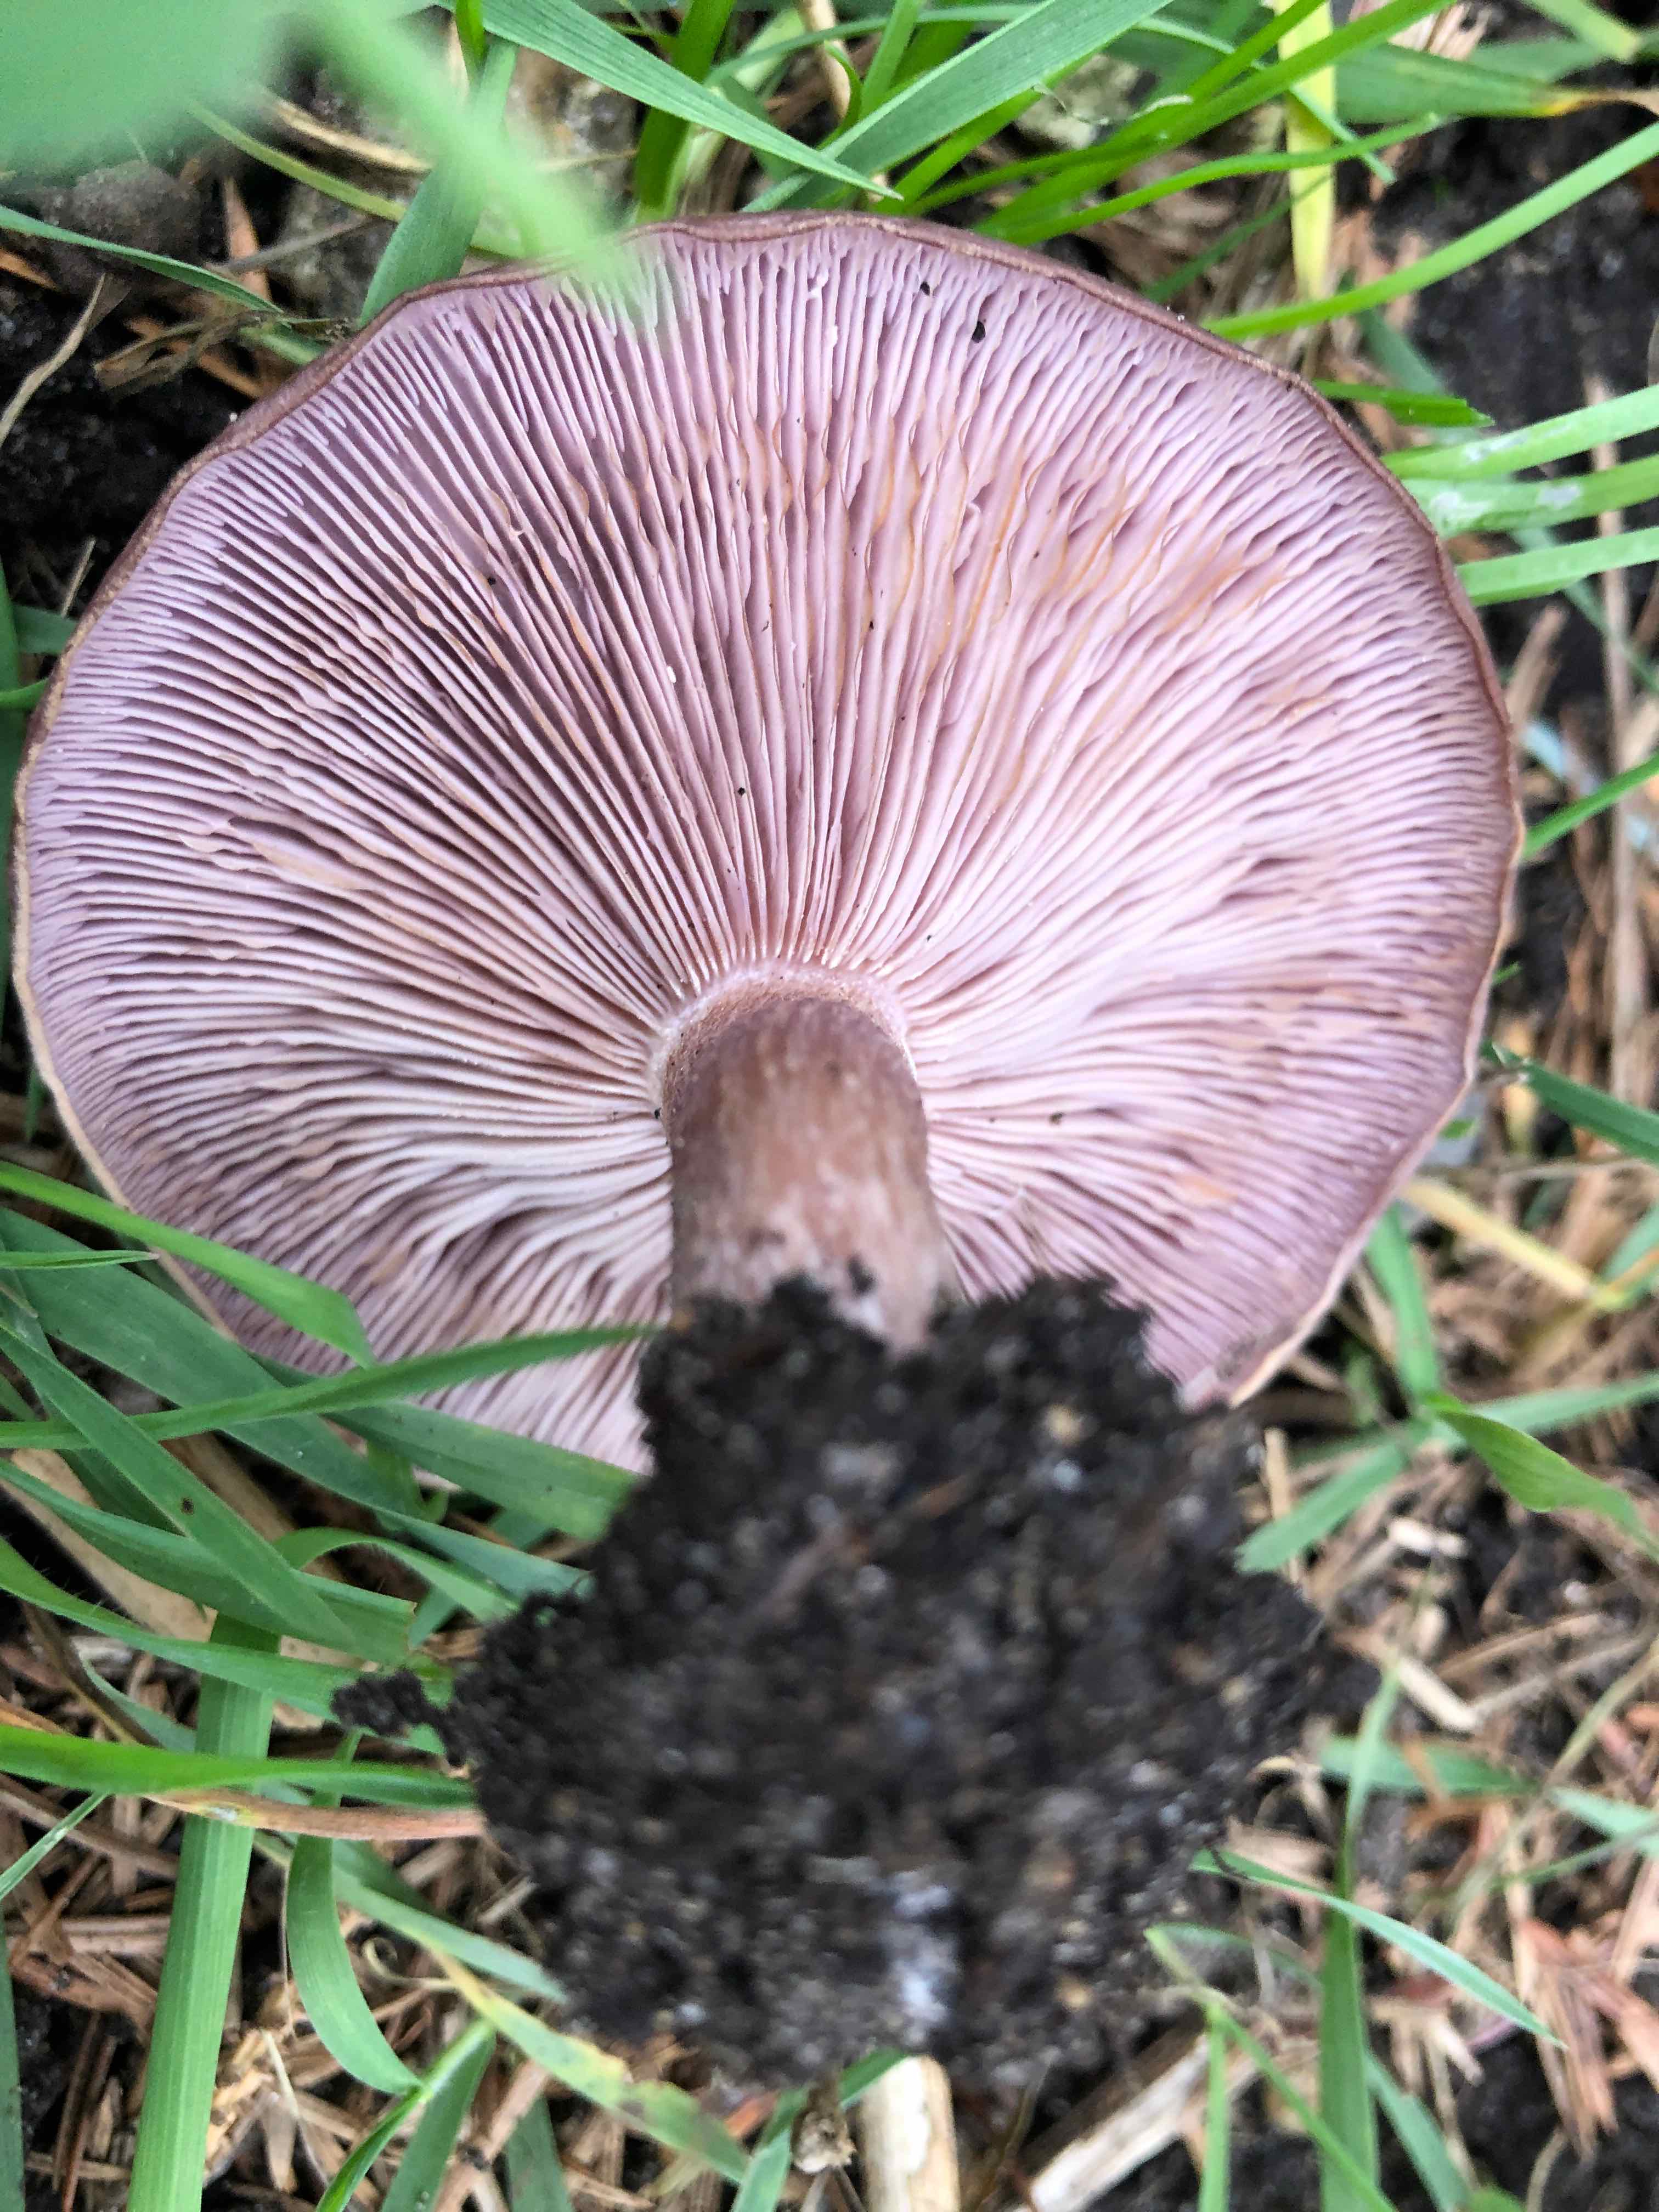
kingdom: Fungi
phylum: Basidiomycota
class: Agaricomycetes
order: Agaricales
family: Tricholomataceae
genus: Lepista
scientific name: Lepista nuda
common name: violet hekseringshat
